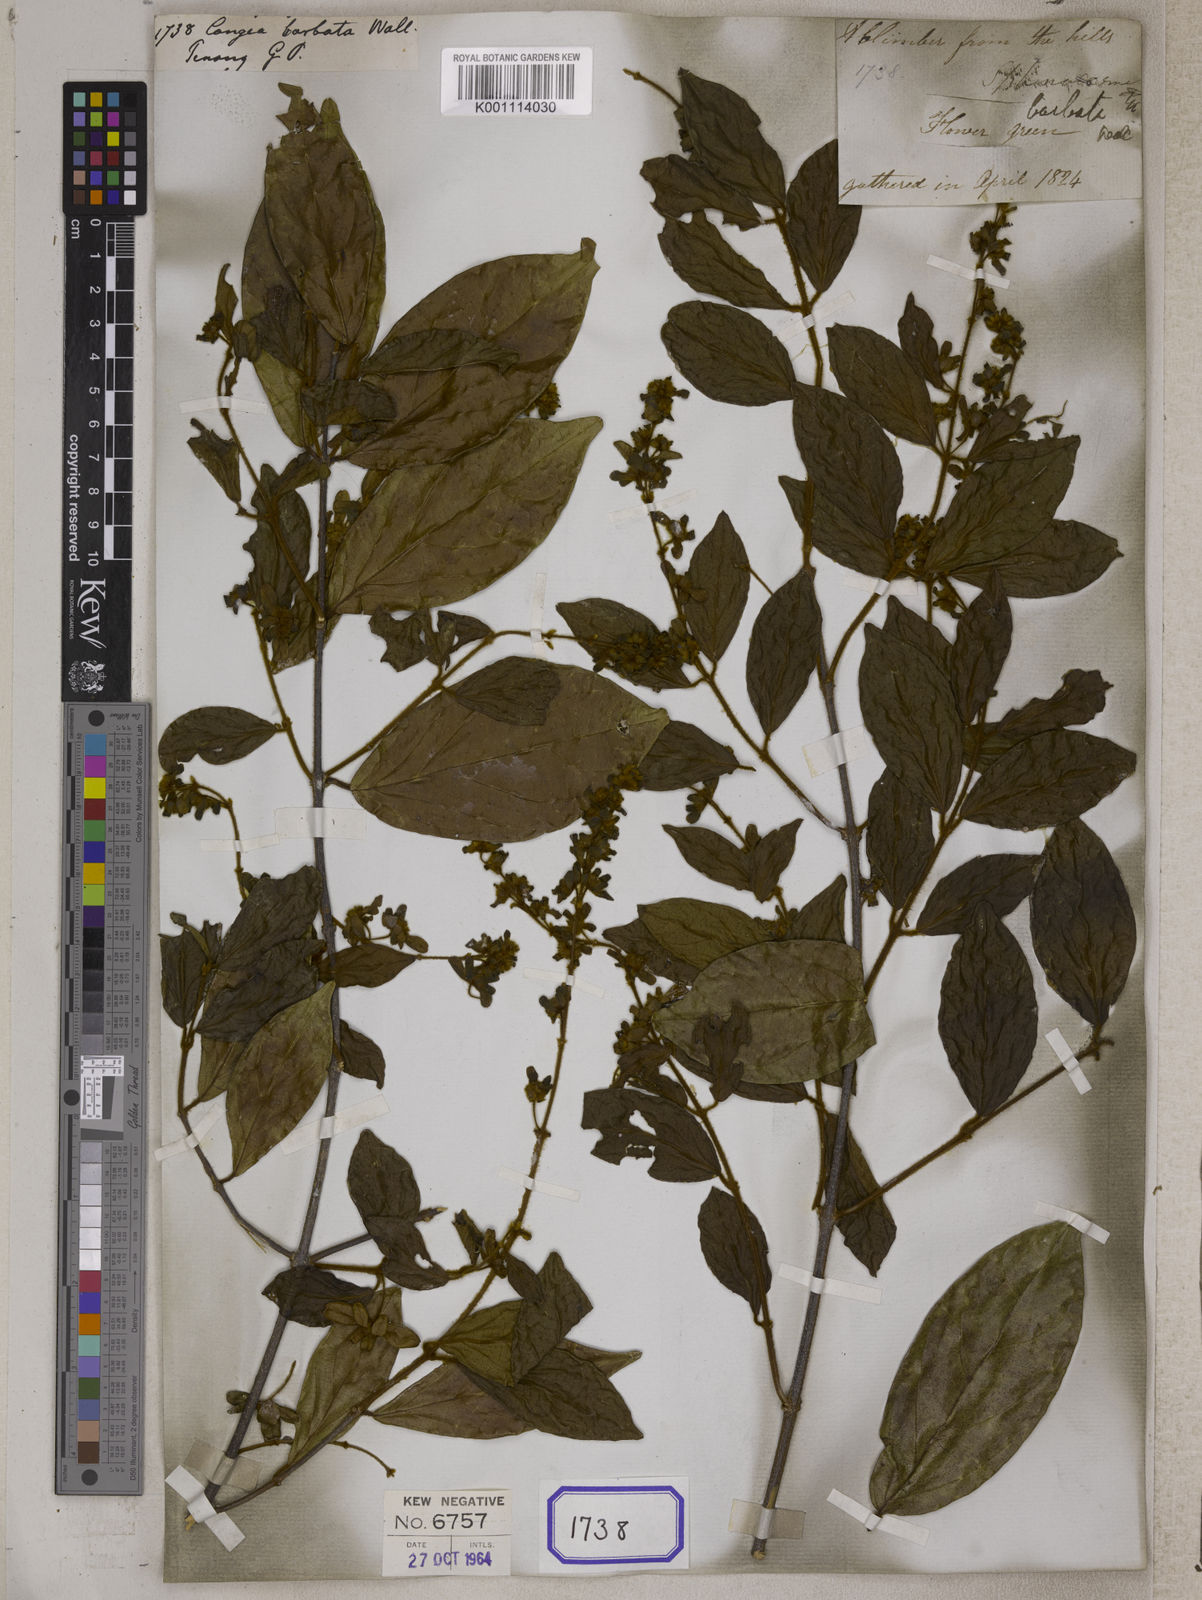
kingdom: Plantae
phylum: Tracheophyta
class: Magnoliopsida
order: Lamiales
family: Lamiaceae
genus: Sphenodesme
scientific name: Sphenodesme racemosa
